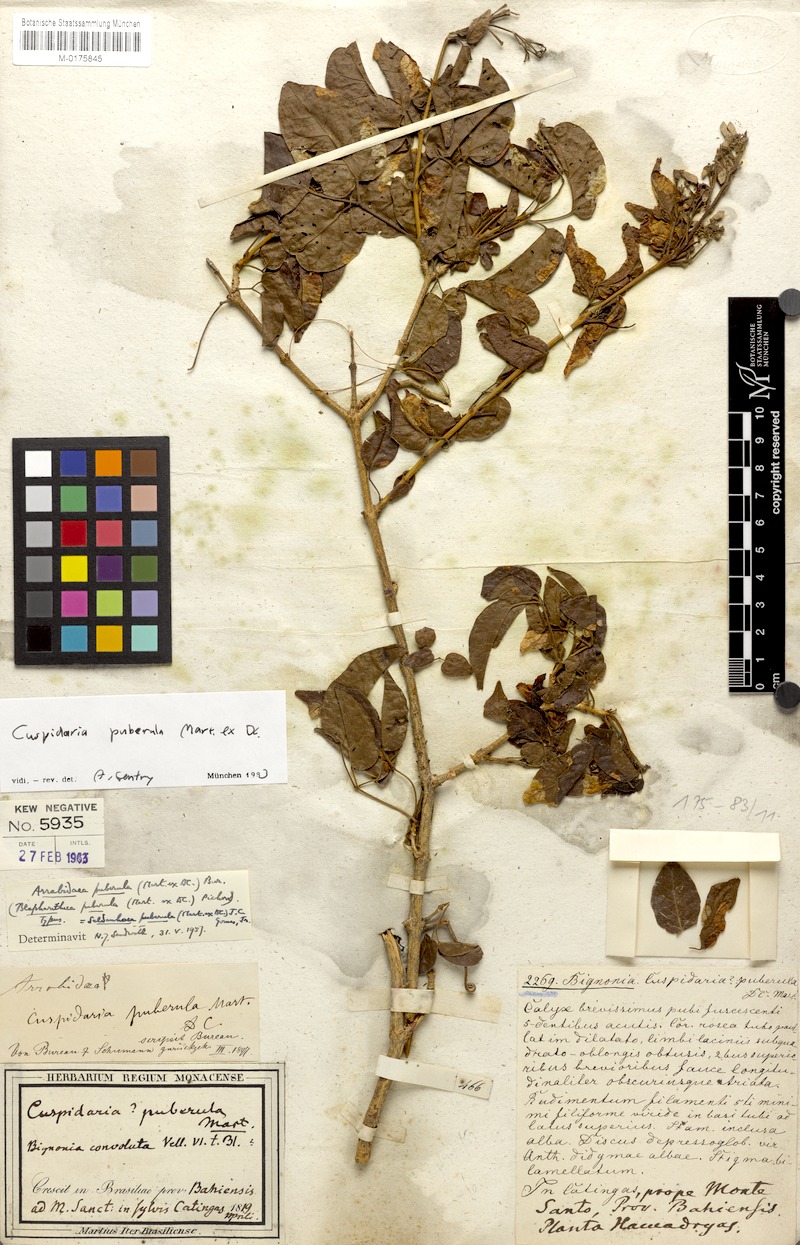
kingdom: Plantae
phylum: Tracheophyta
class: Magnoliopsida
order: Lamiales
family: Bignoniaceae
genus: Cuspidaria
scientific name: Cuspidaria simplicifolia
